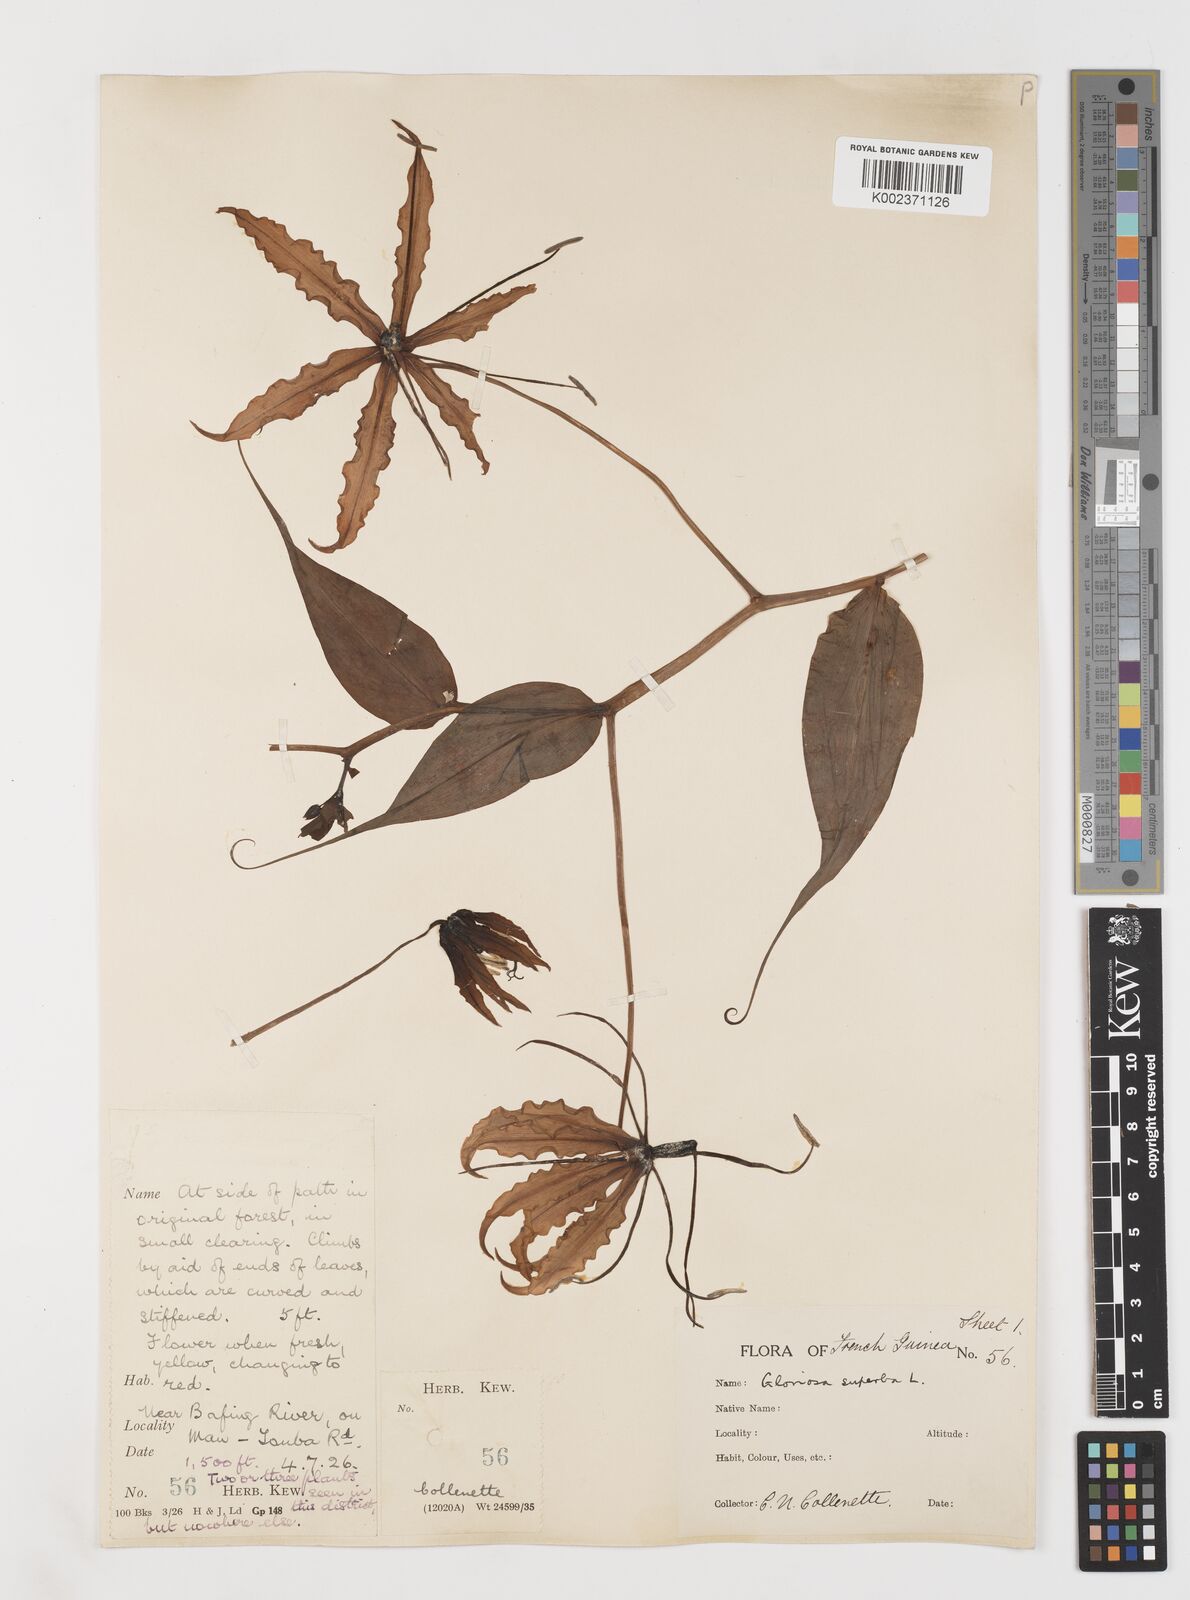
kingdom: Plantae
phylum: Tracheophyta
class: Liliopsida
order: Liliales
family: Colchicaceae
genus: Gloriosa
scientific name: Gloriosa simplex
